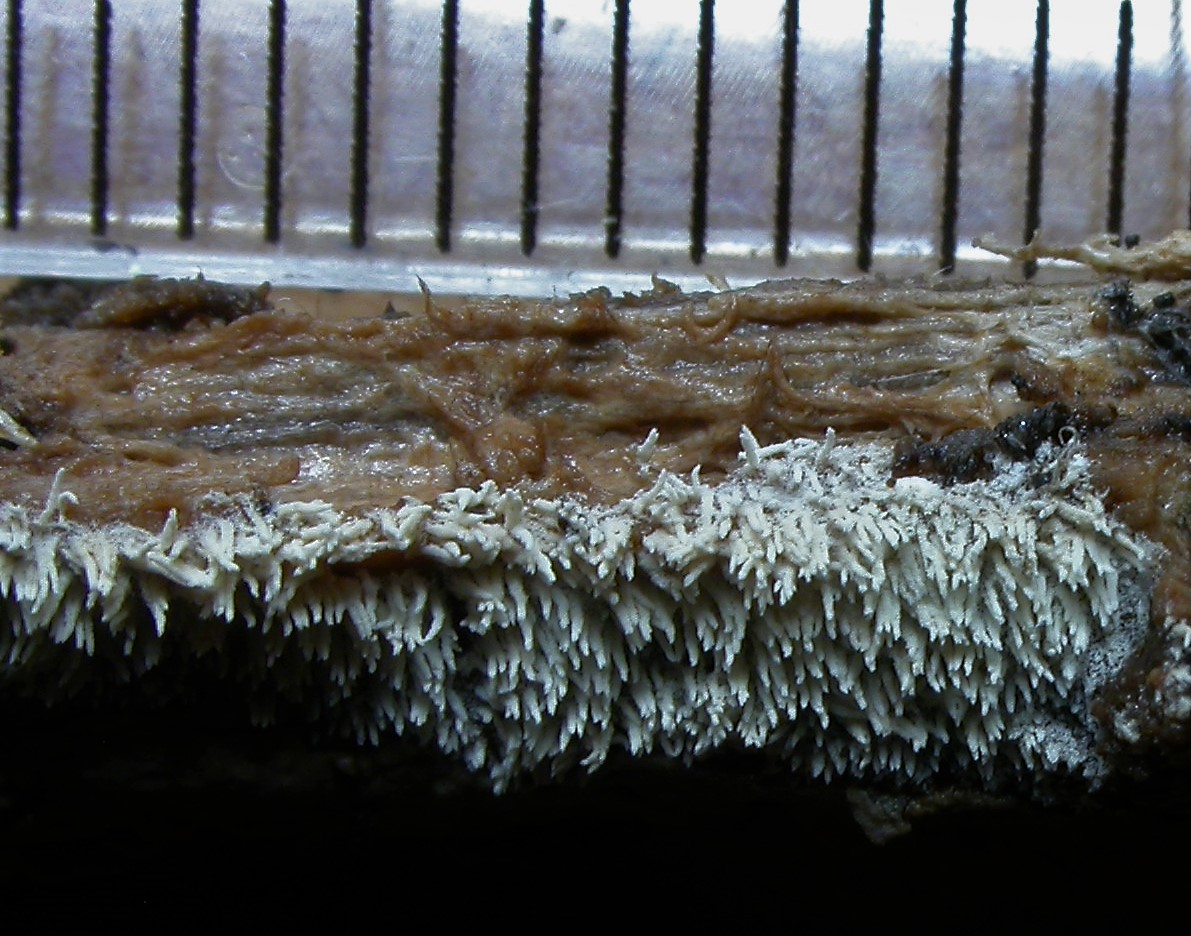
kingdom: Fungi
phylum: Basidiomycota
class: Agaricomycetes
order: Trechisporales
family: Sistotremataceae
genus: Trechispora
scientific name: Trechispora nivea
